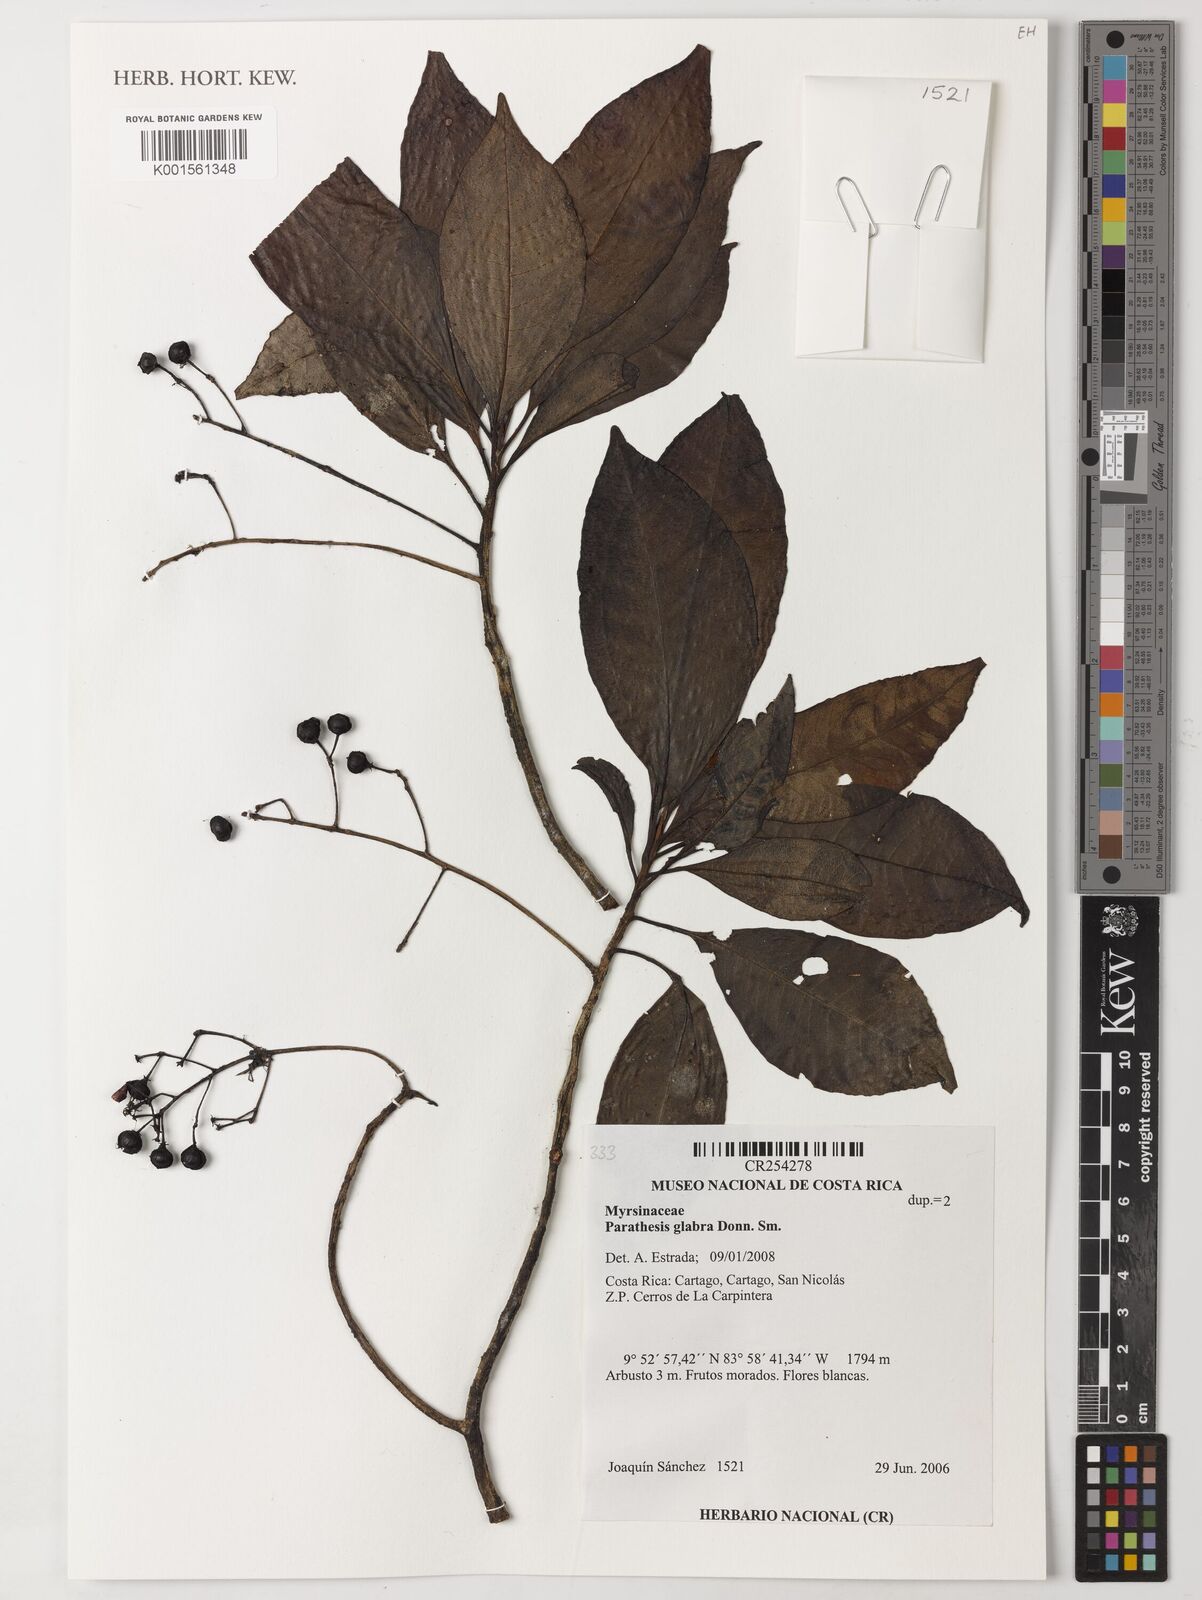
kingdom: Plantae
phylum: Tracheophyta
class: Magnoliopsida
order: Ericales
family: Primulaceae
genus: Parathesis
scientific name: Parathesis glabra
